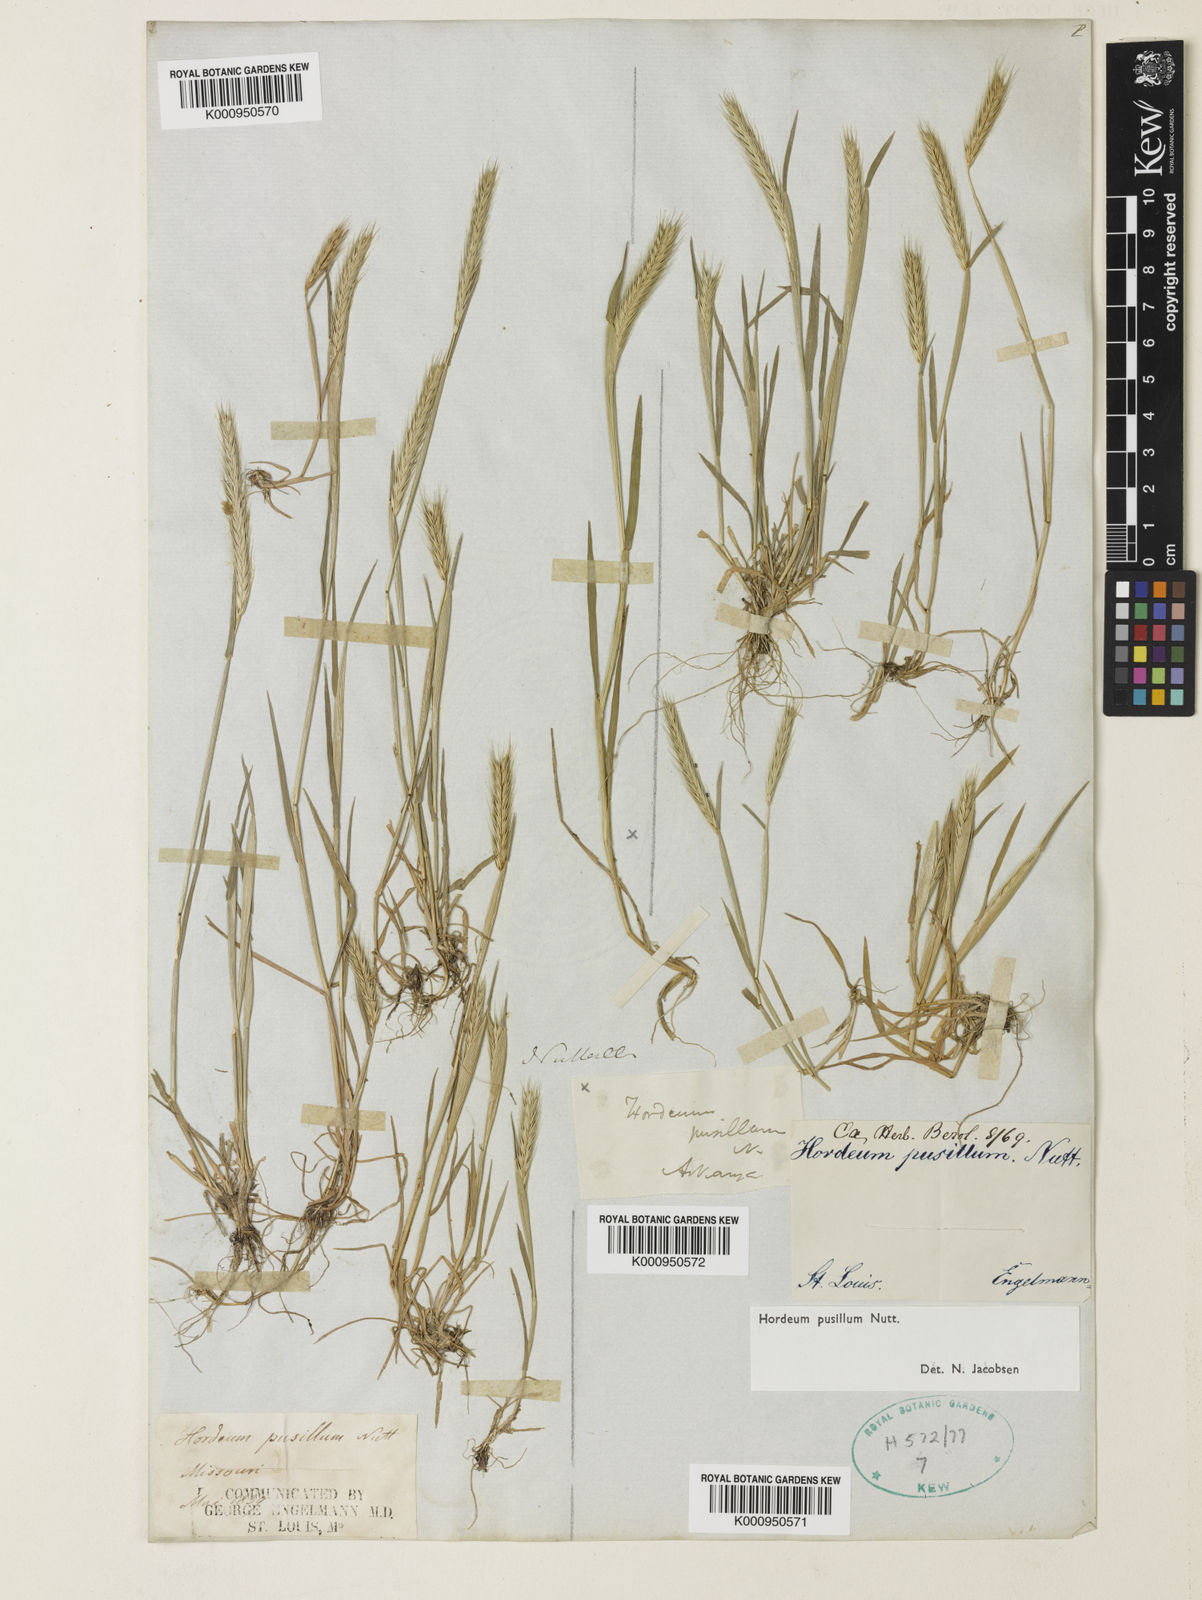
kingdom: Plantae
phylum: Tracheophyta
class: Liliopsida
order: Poales
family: Poaceae
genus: Hordeum
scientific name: Hordeum pusillum
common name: Little barley
